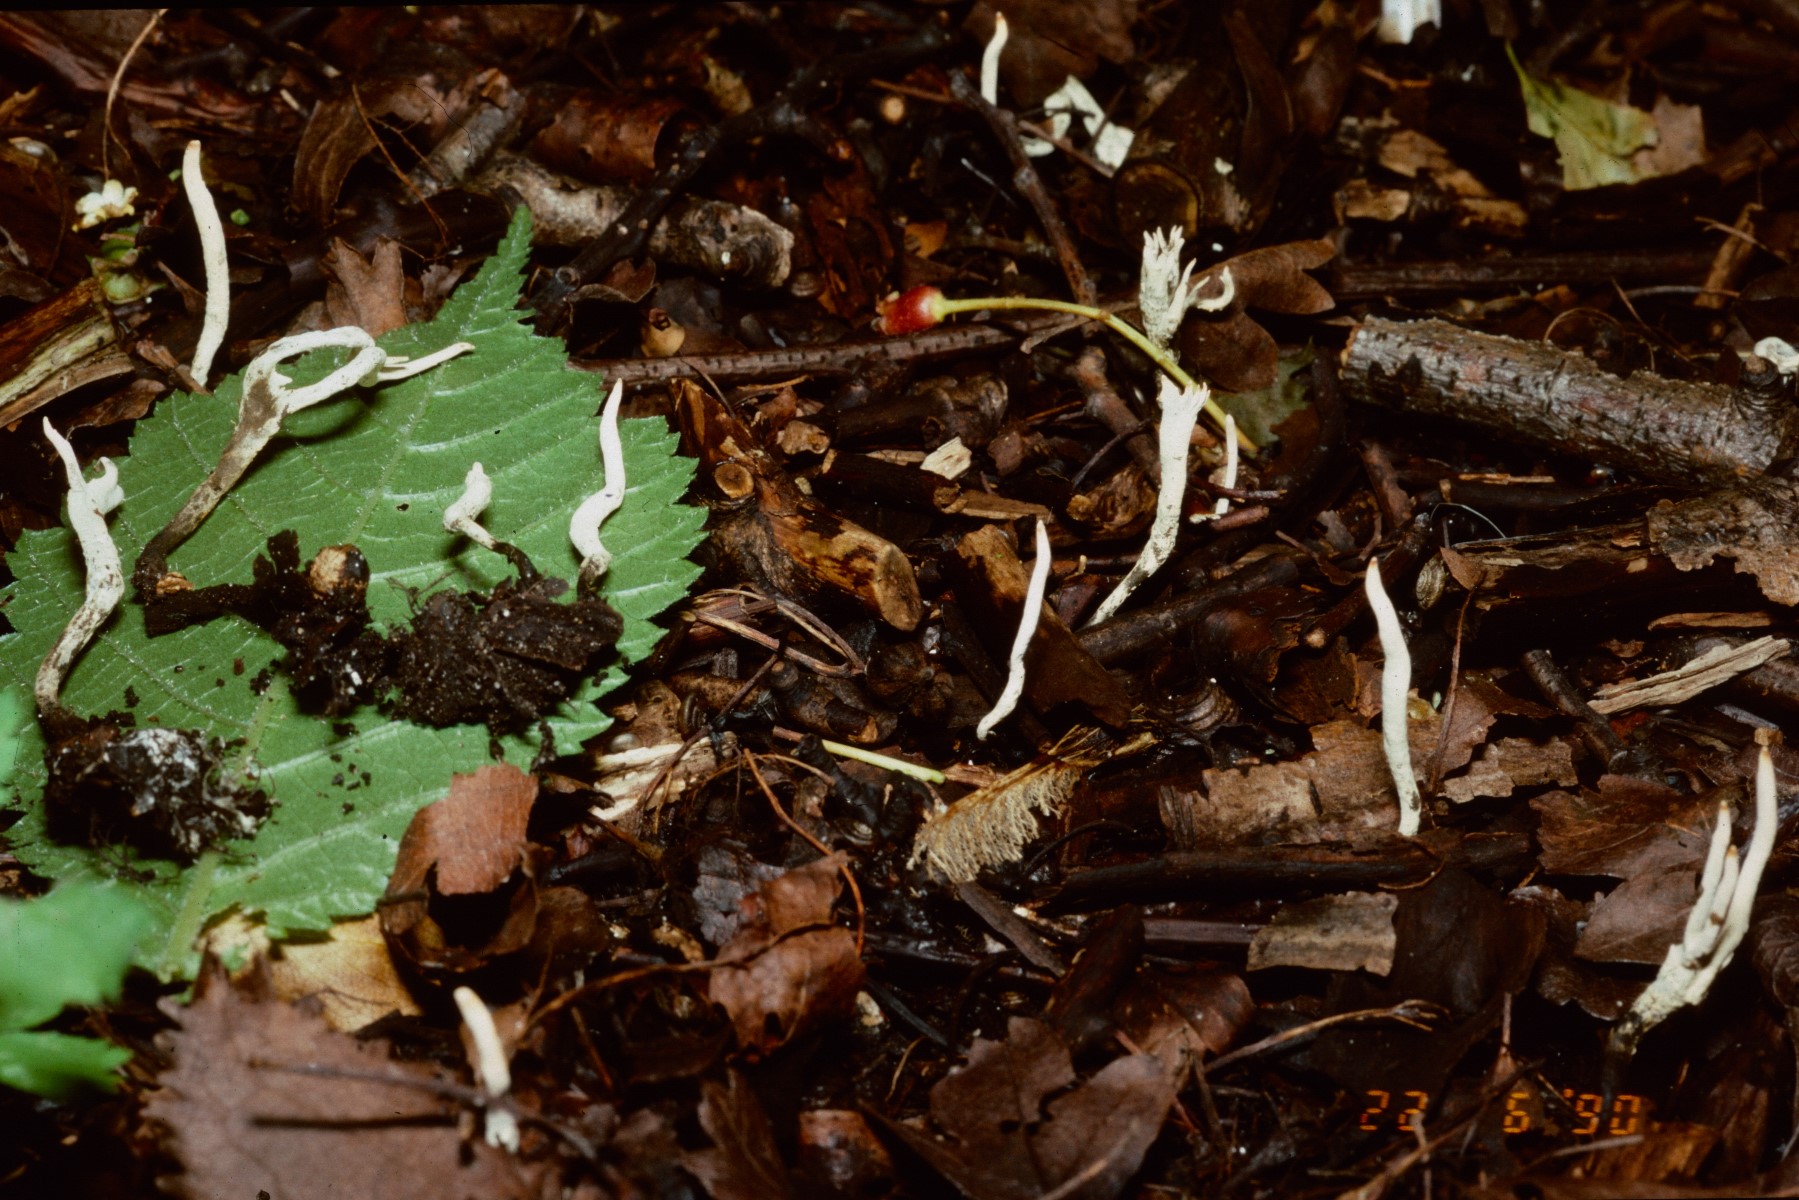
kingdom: Fungi
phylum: Ascomycota
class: Sordariomycetes
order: Xylariales
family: Xylariaceae
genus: Xylaria
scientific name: Xylaria oxyacanthae
